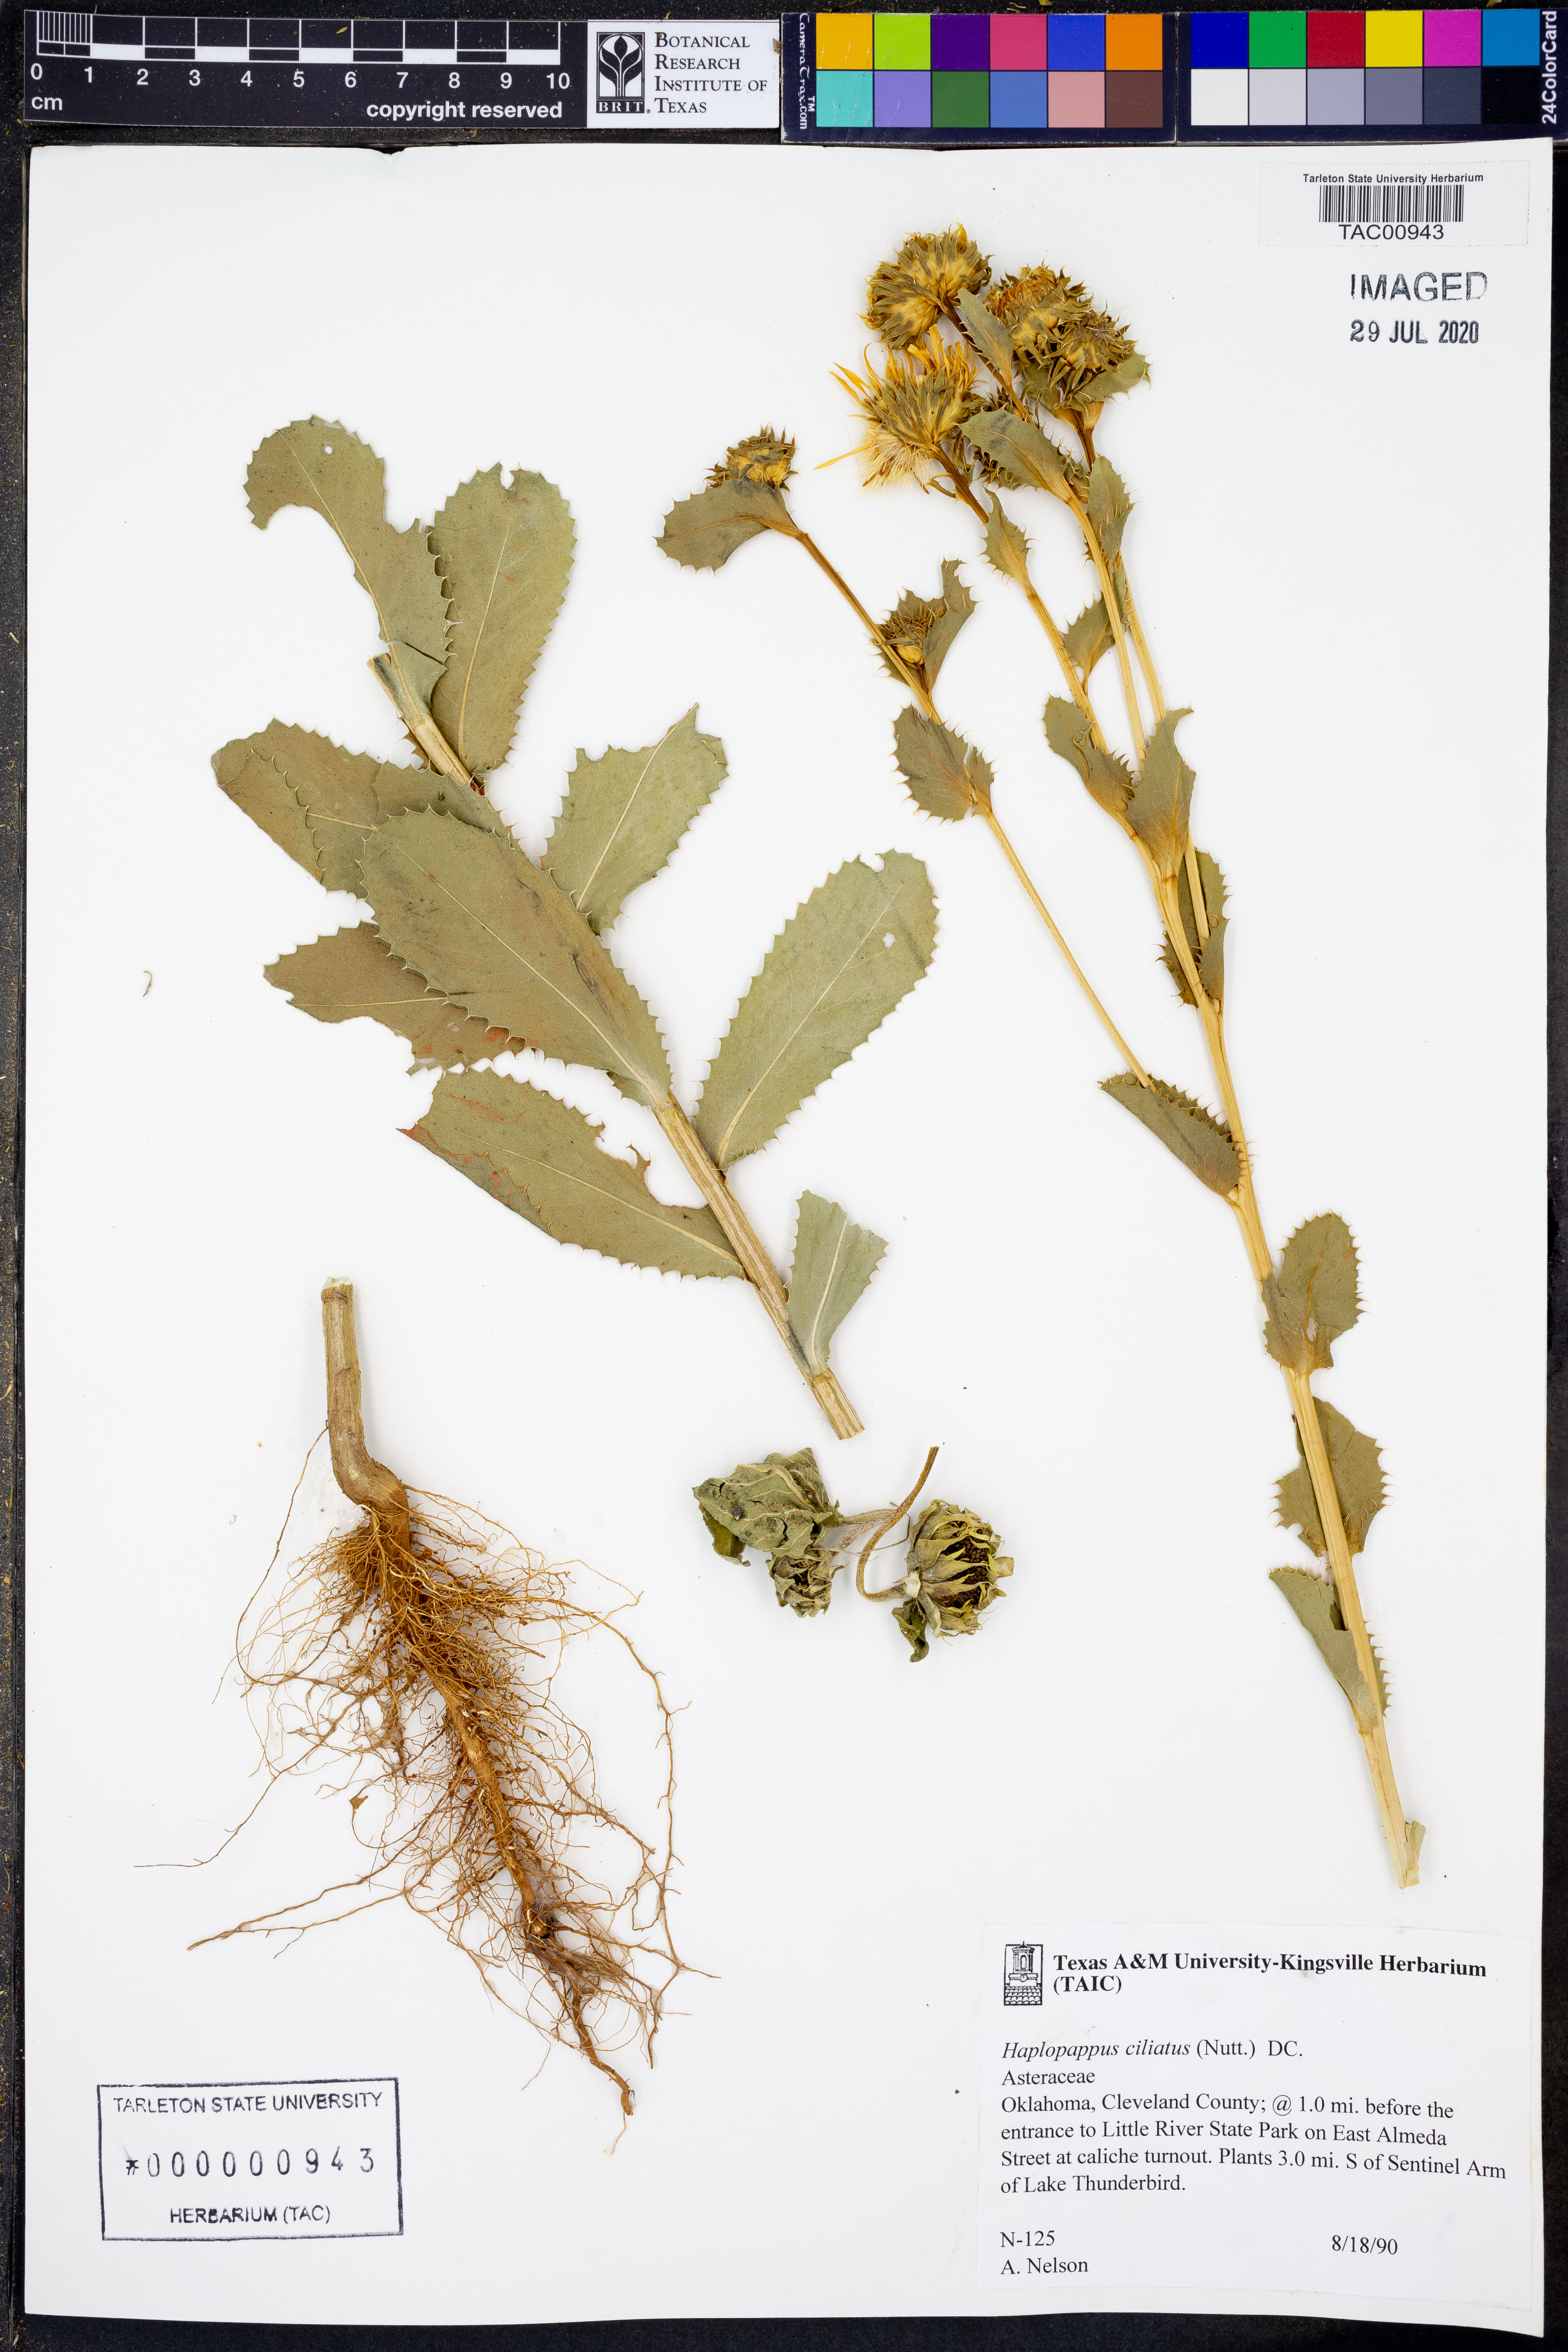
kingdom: Plantae
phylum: Tracheophyta
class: Magnoliopsida
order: Asterales
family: Asteraceae
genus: Grindelia
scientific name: Grindelia ciliata
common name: Goldenweed
